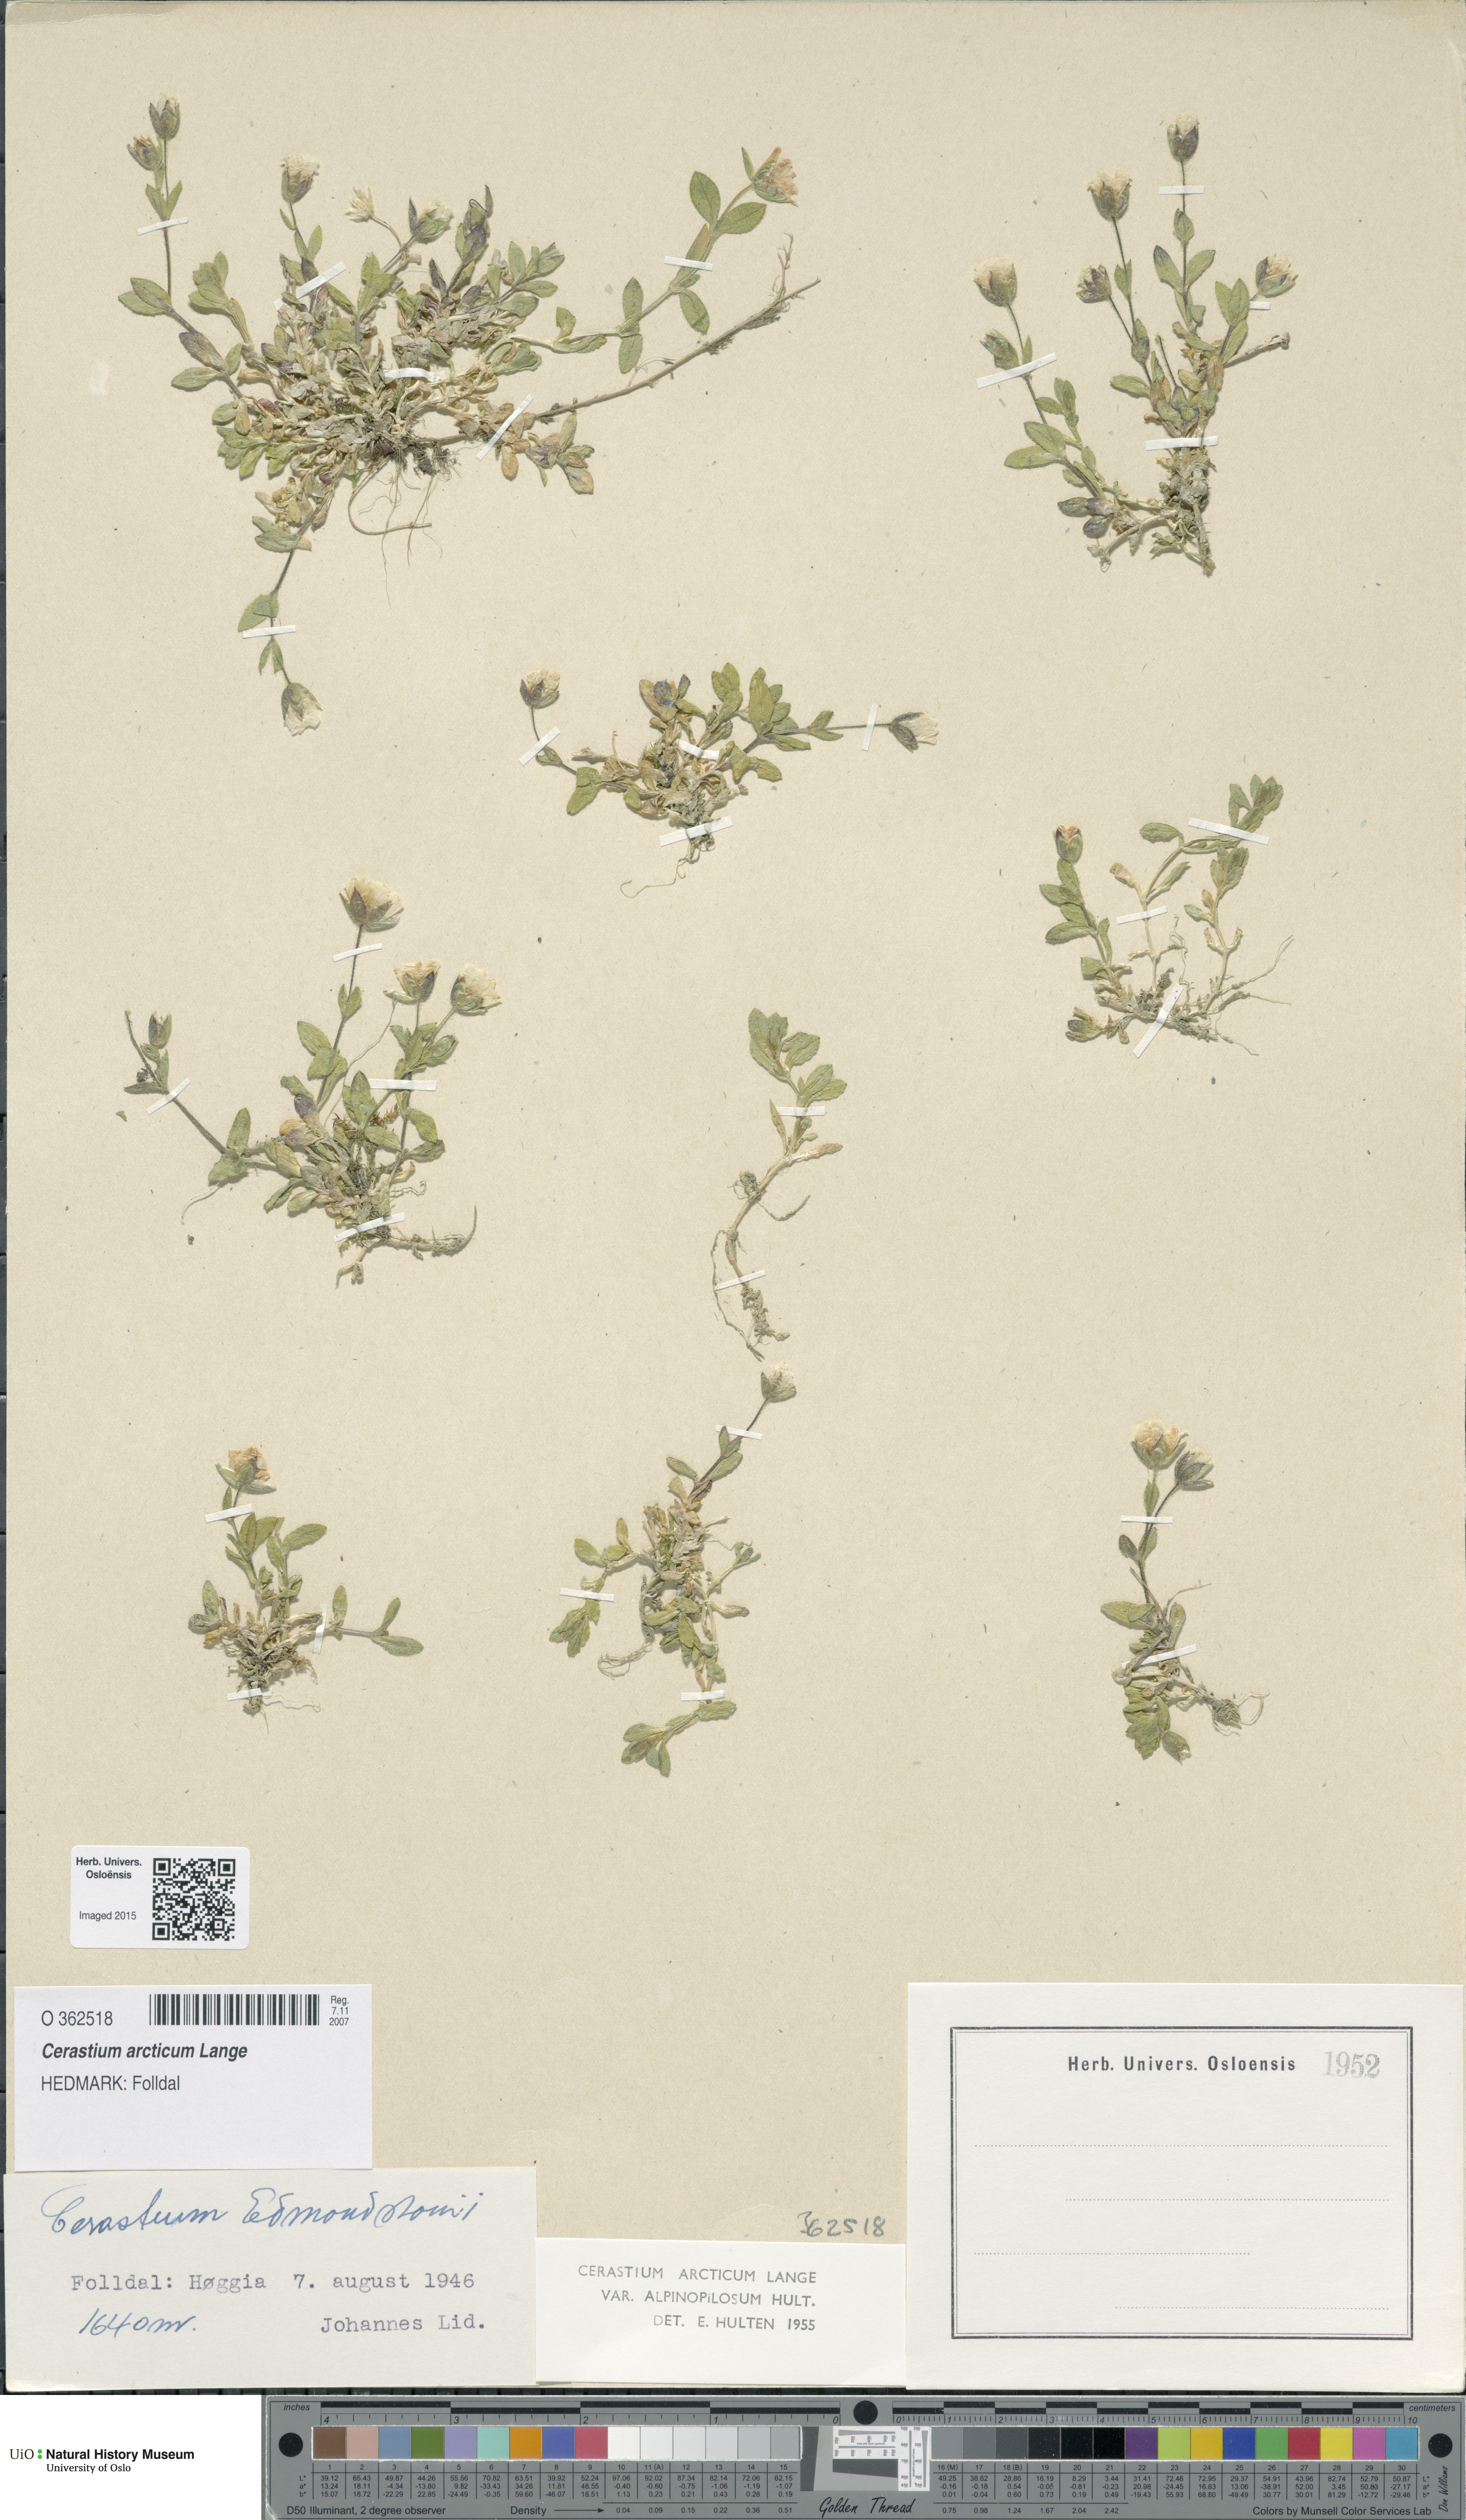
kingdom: Plantae
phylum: Tracheophyta
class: Magnoliopsida
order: Caryophyllales
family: Caryophyllaceae
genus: Cerastium
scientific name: Cerastium arcticum
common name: Arctic mouse-ear
